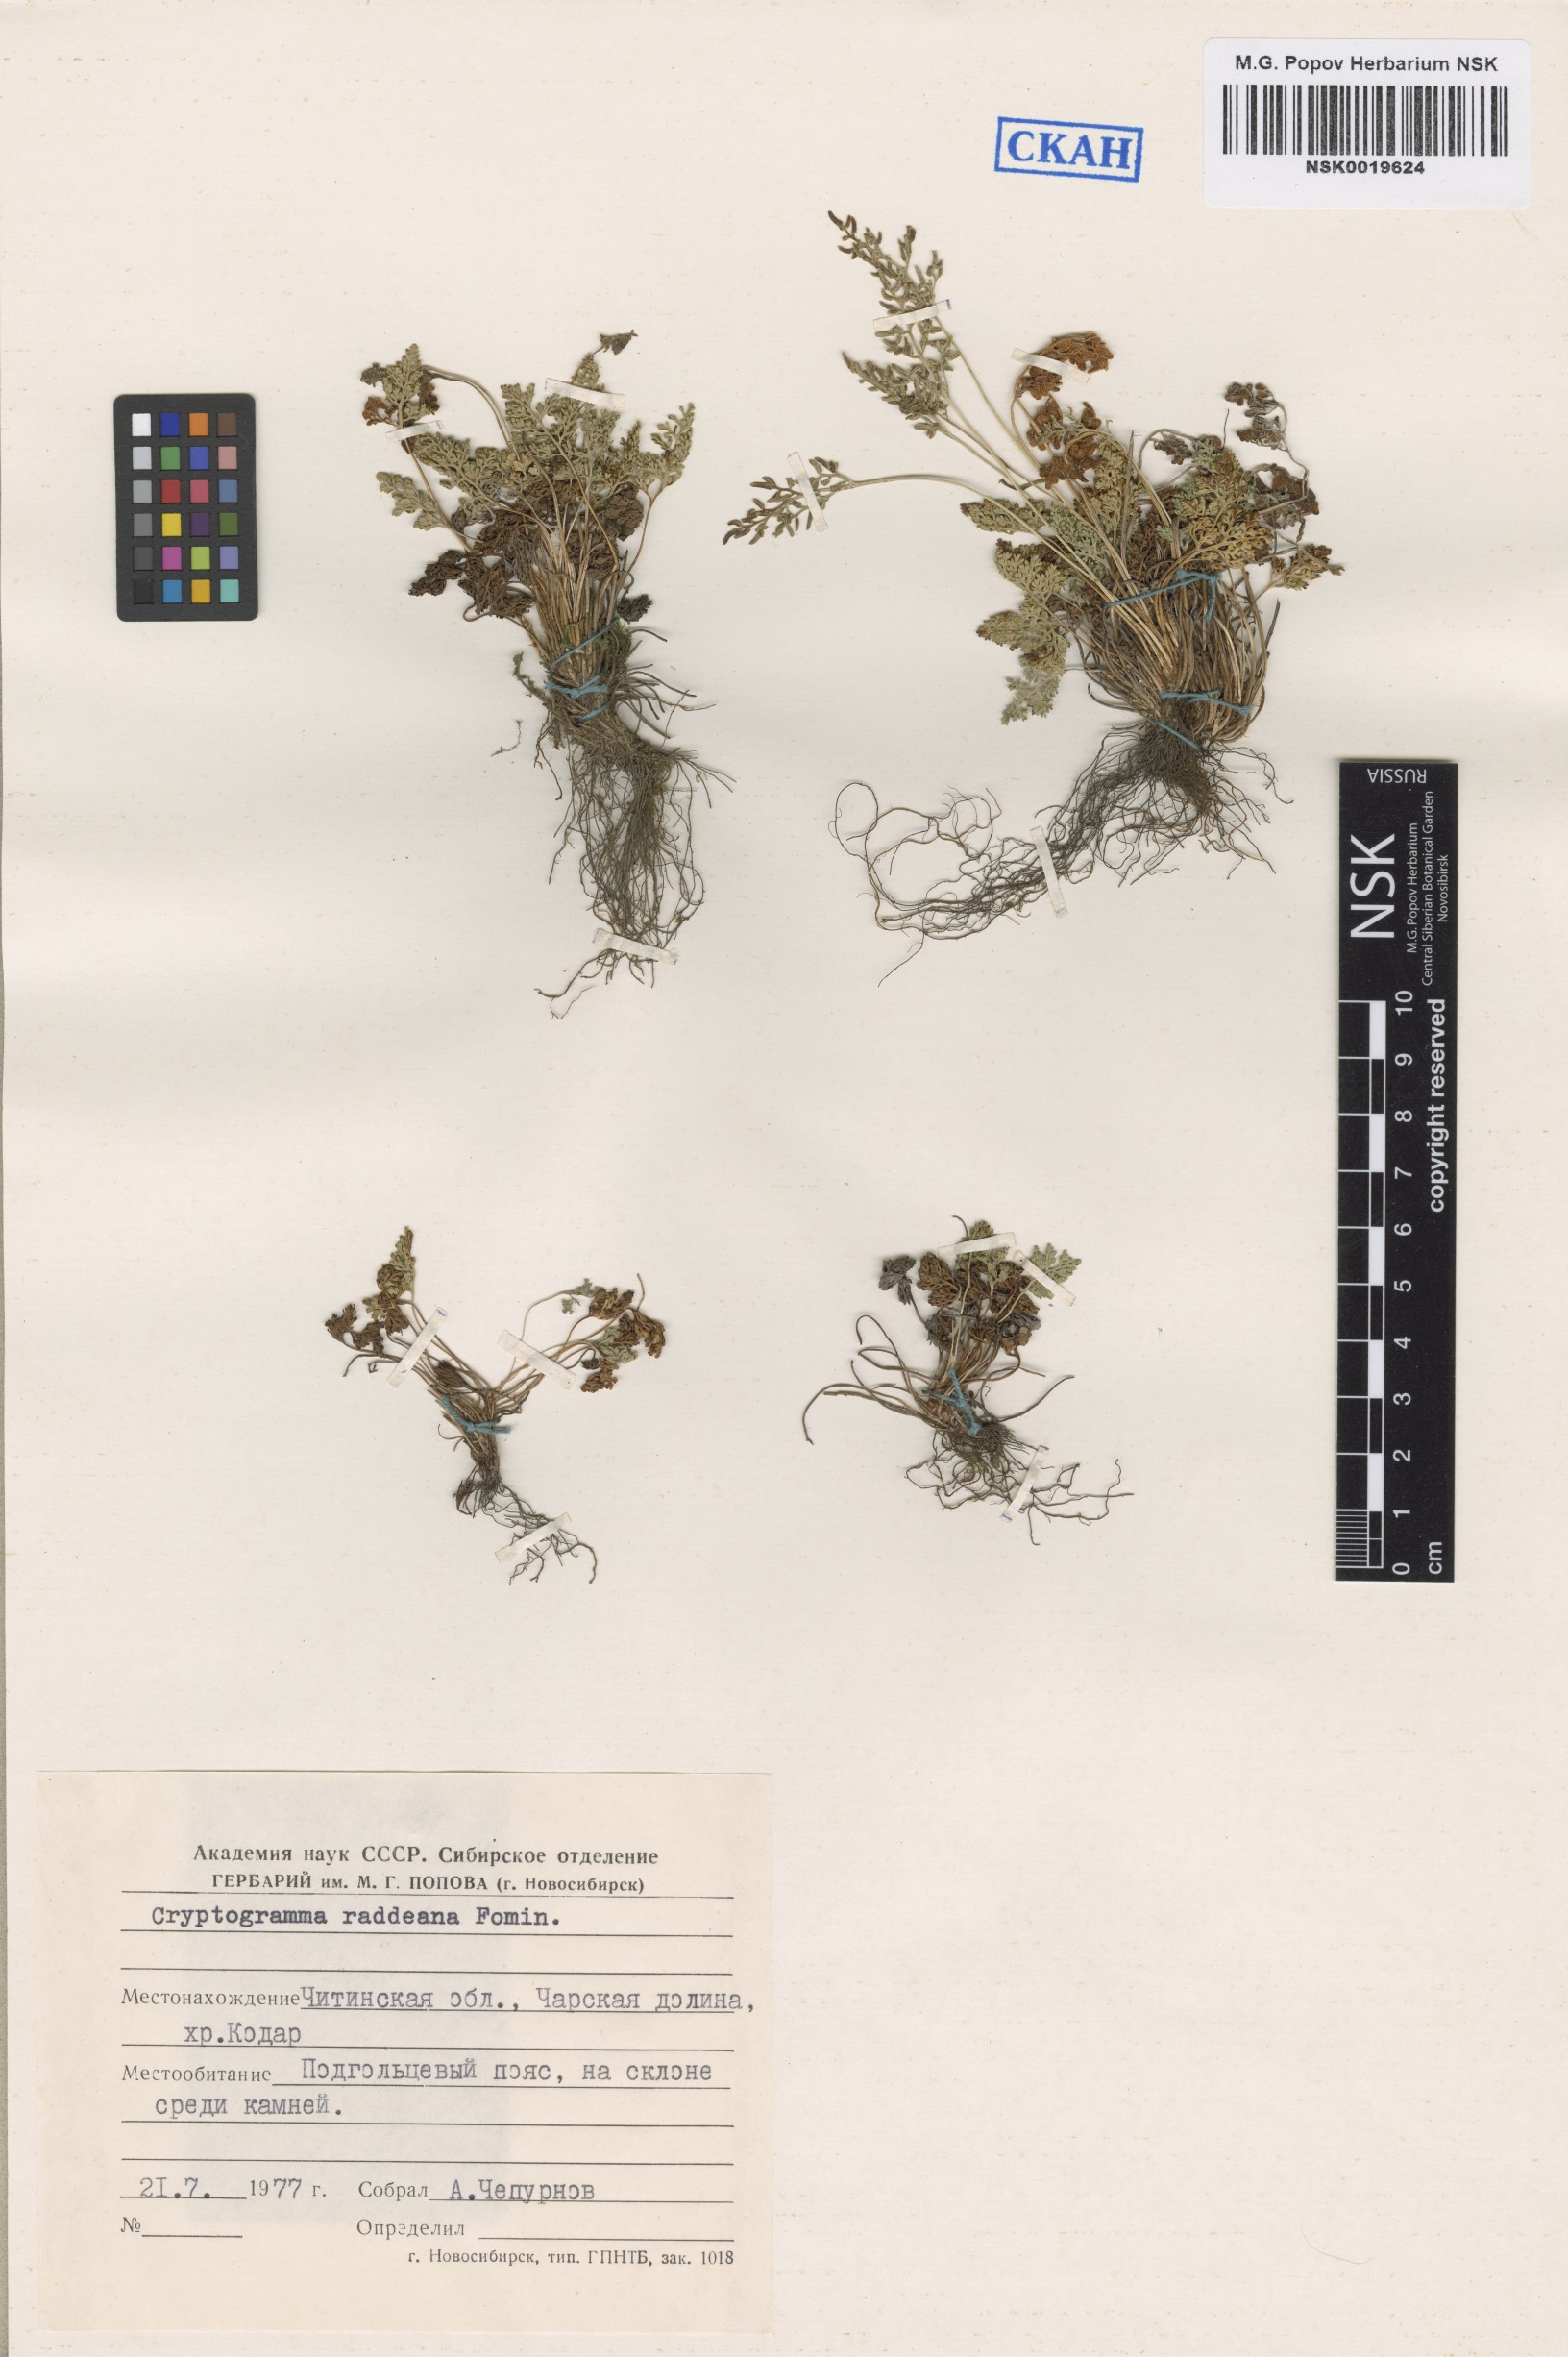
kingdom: Plantae
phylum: Tracheophyta
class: Polypodiopsida
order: Polypodiales
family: Pteridaceae
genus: Cryptogramma
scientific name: Cryptogramma brunoniana
